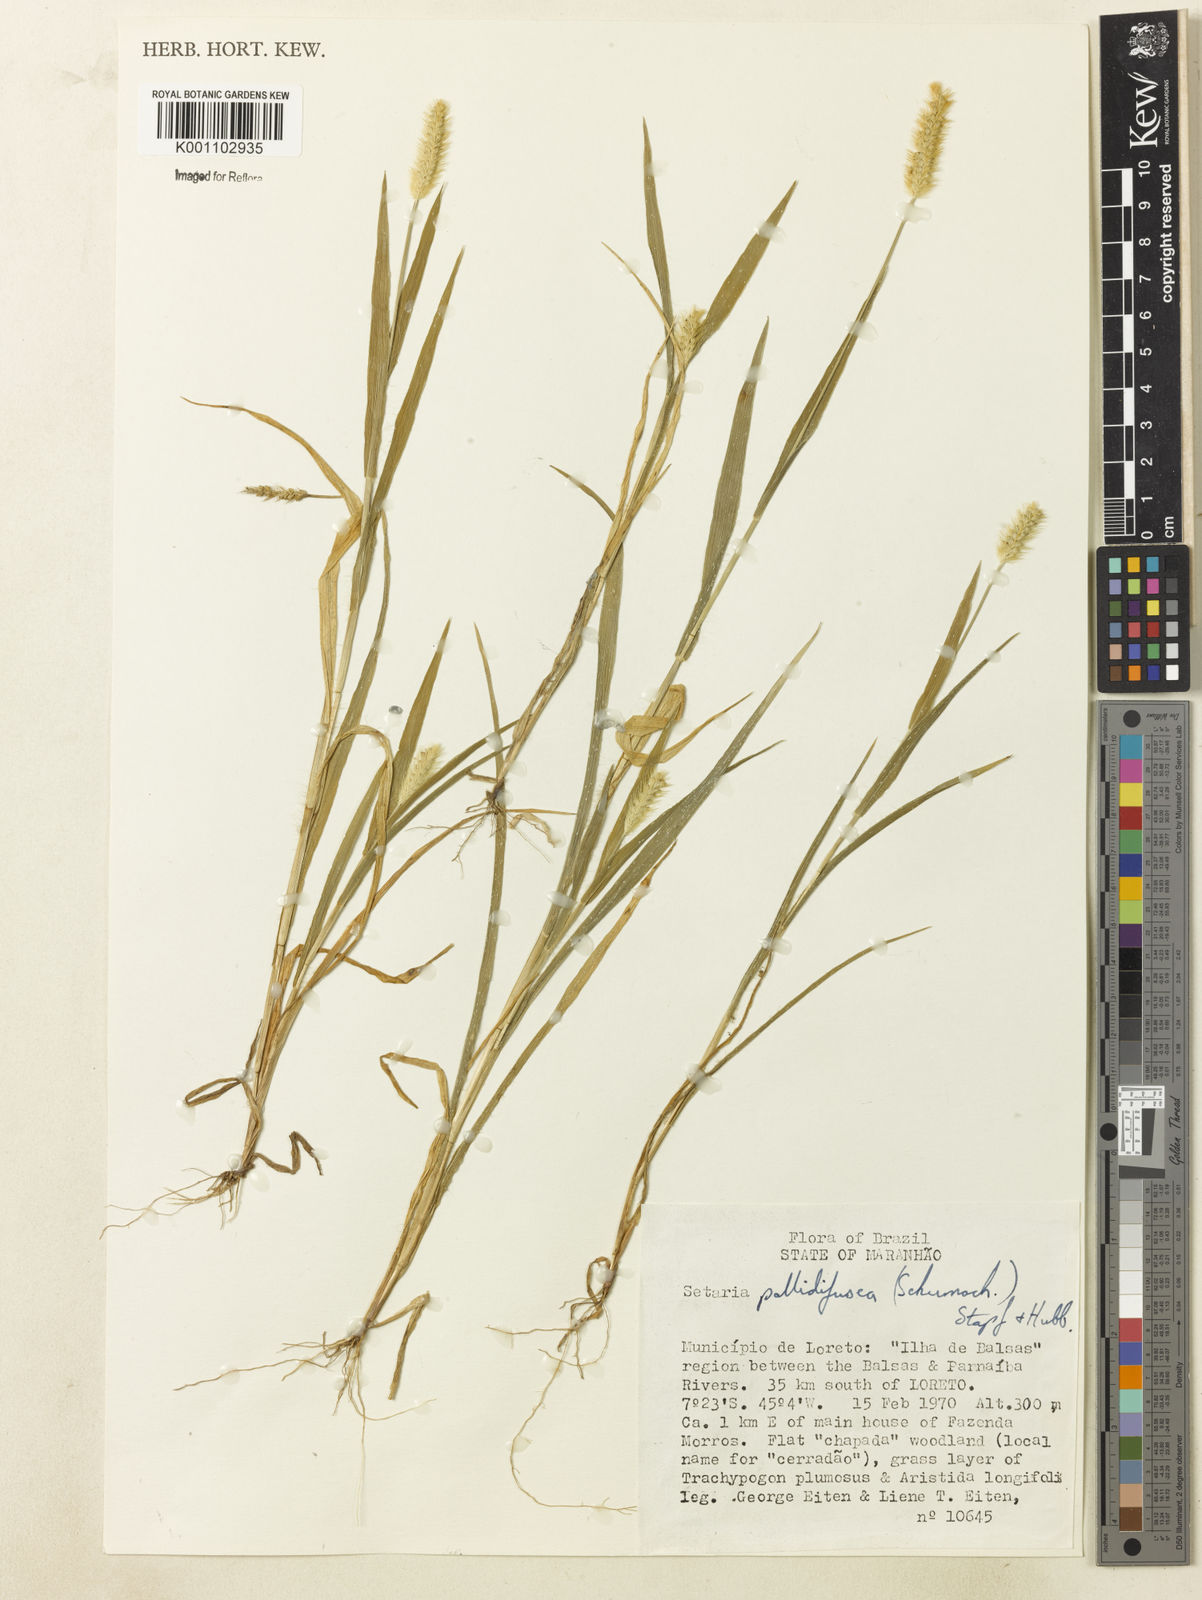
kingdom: Plantae
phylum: Tracheophyta
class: Liliopsida
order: Poales
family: Poaceae
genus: Setaria
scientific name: Setaria pumila
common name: Yellow bristle-grass
